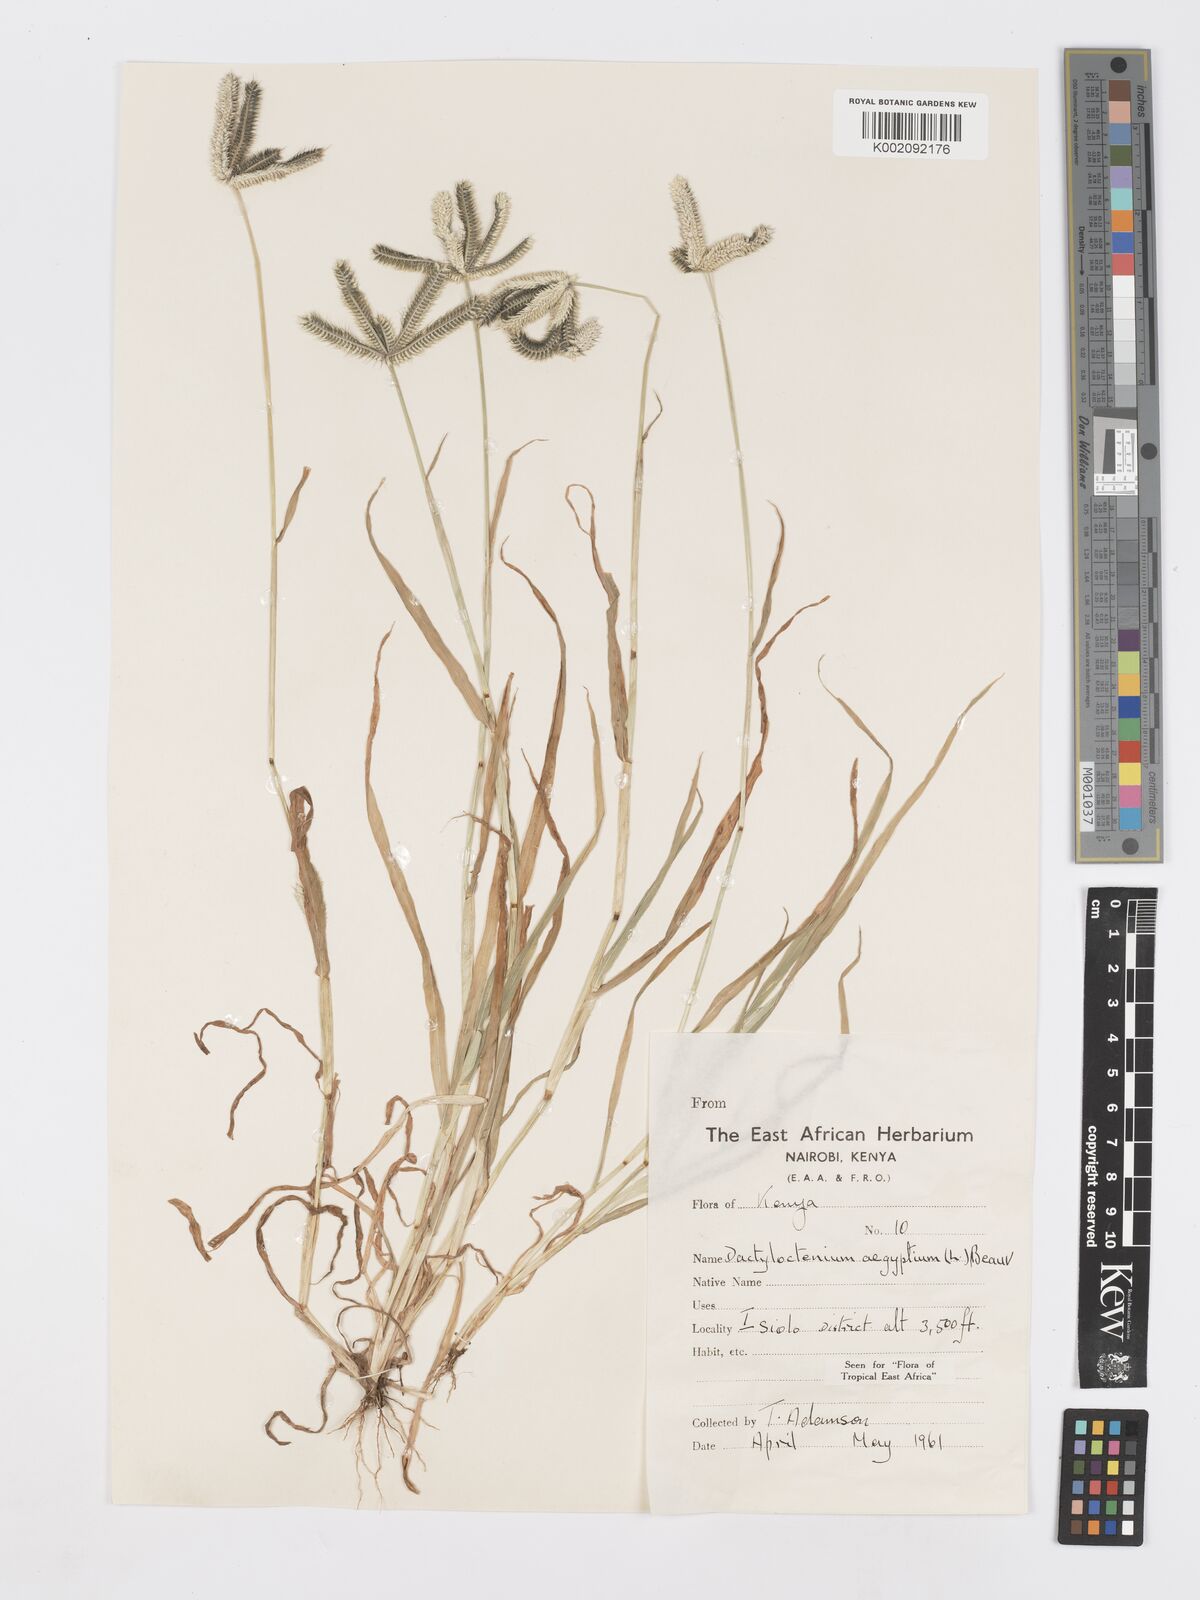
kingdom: Plantae
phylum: Tracheophyta
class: Liliopsida
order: Poales
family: Poaceae
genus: Dactyloctenium
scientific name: Dactyloctenium aegyptium
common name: Egyptian grass
